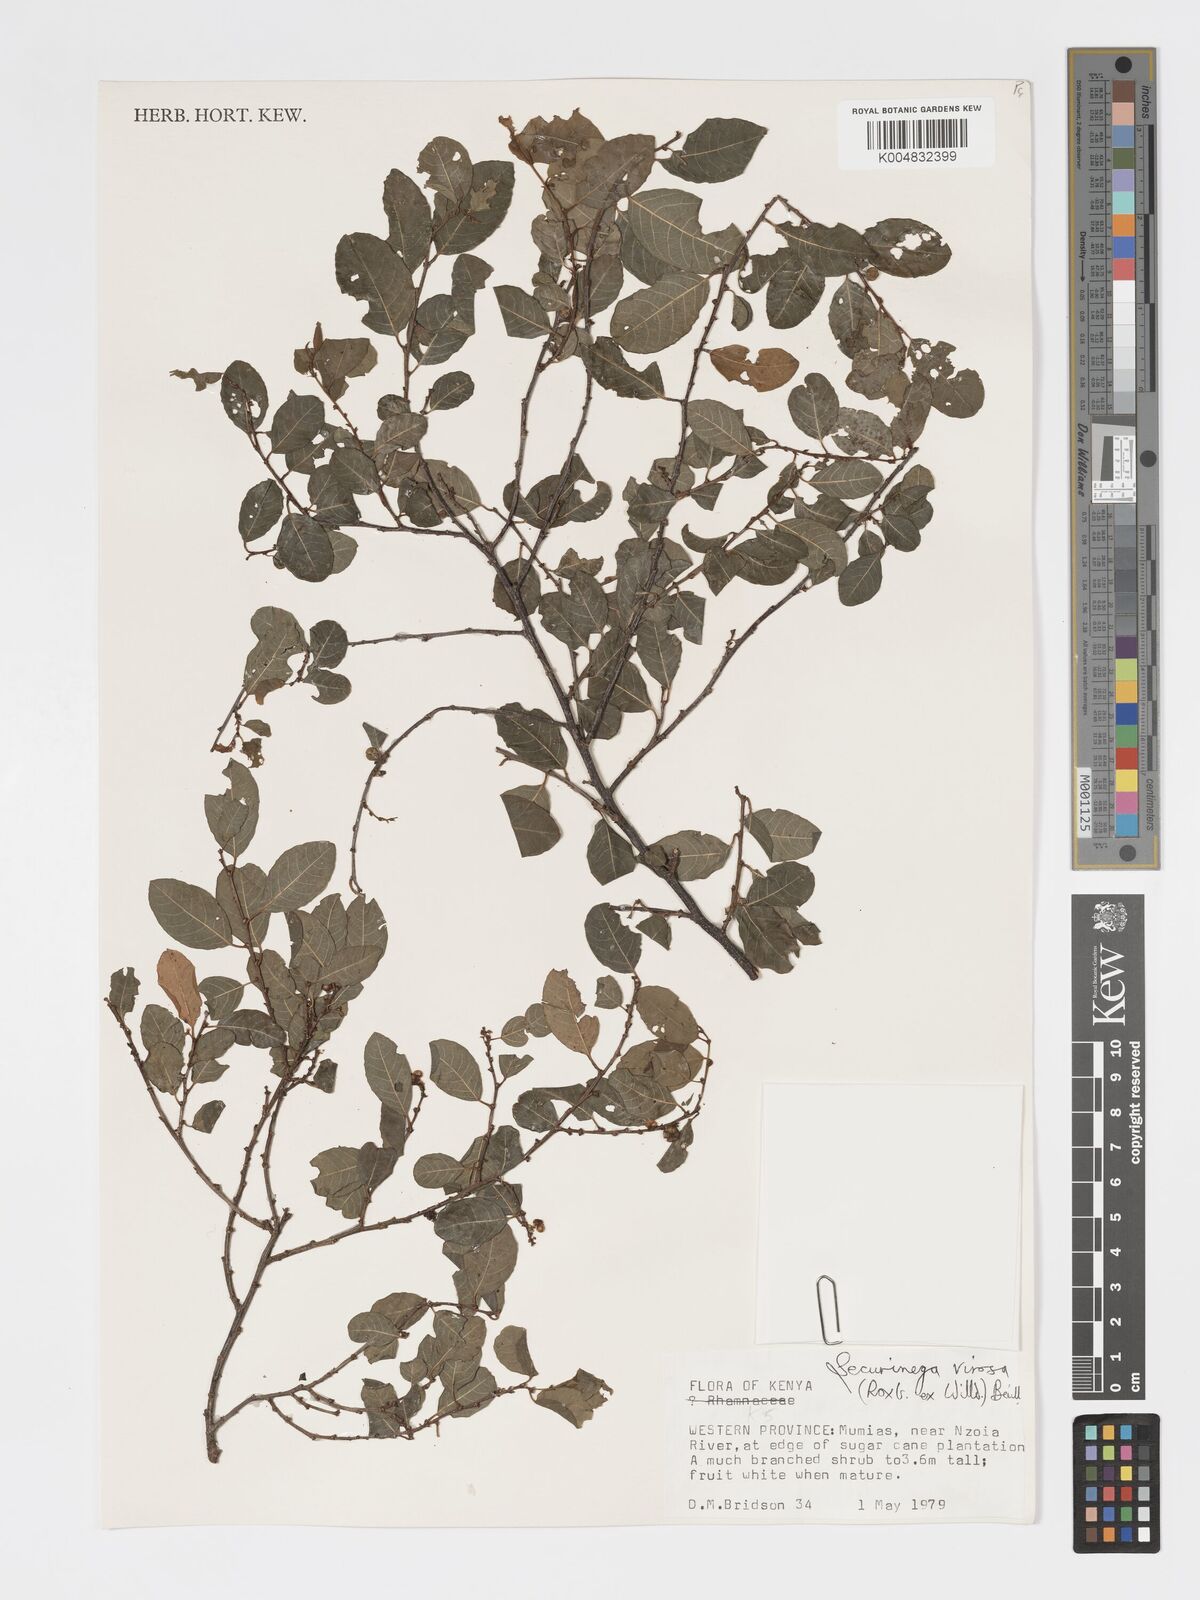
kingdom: Plantae
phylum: Tracheophyta
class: Magnoliopsida
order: Malpighiales
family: Phyllanthaceae
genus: Flueggea
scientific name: Flueggea virosa
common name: Common bushweed
